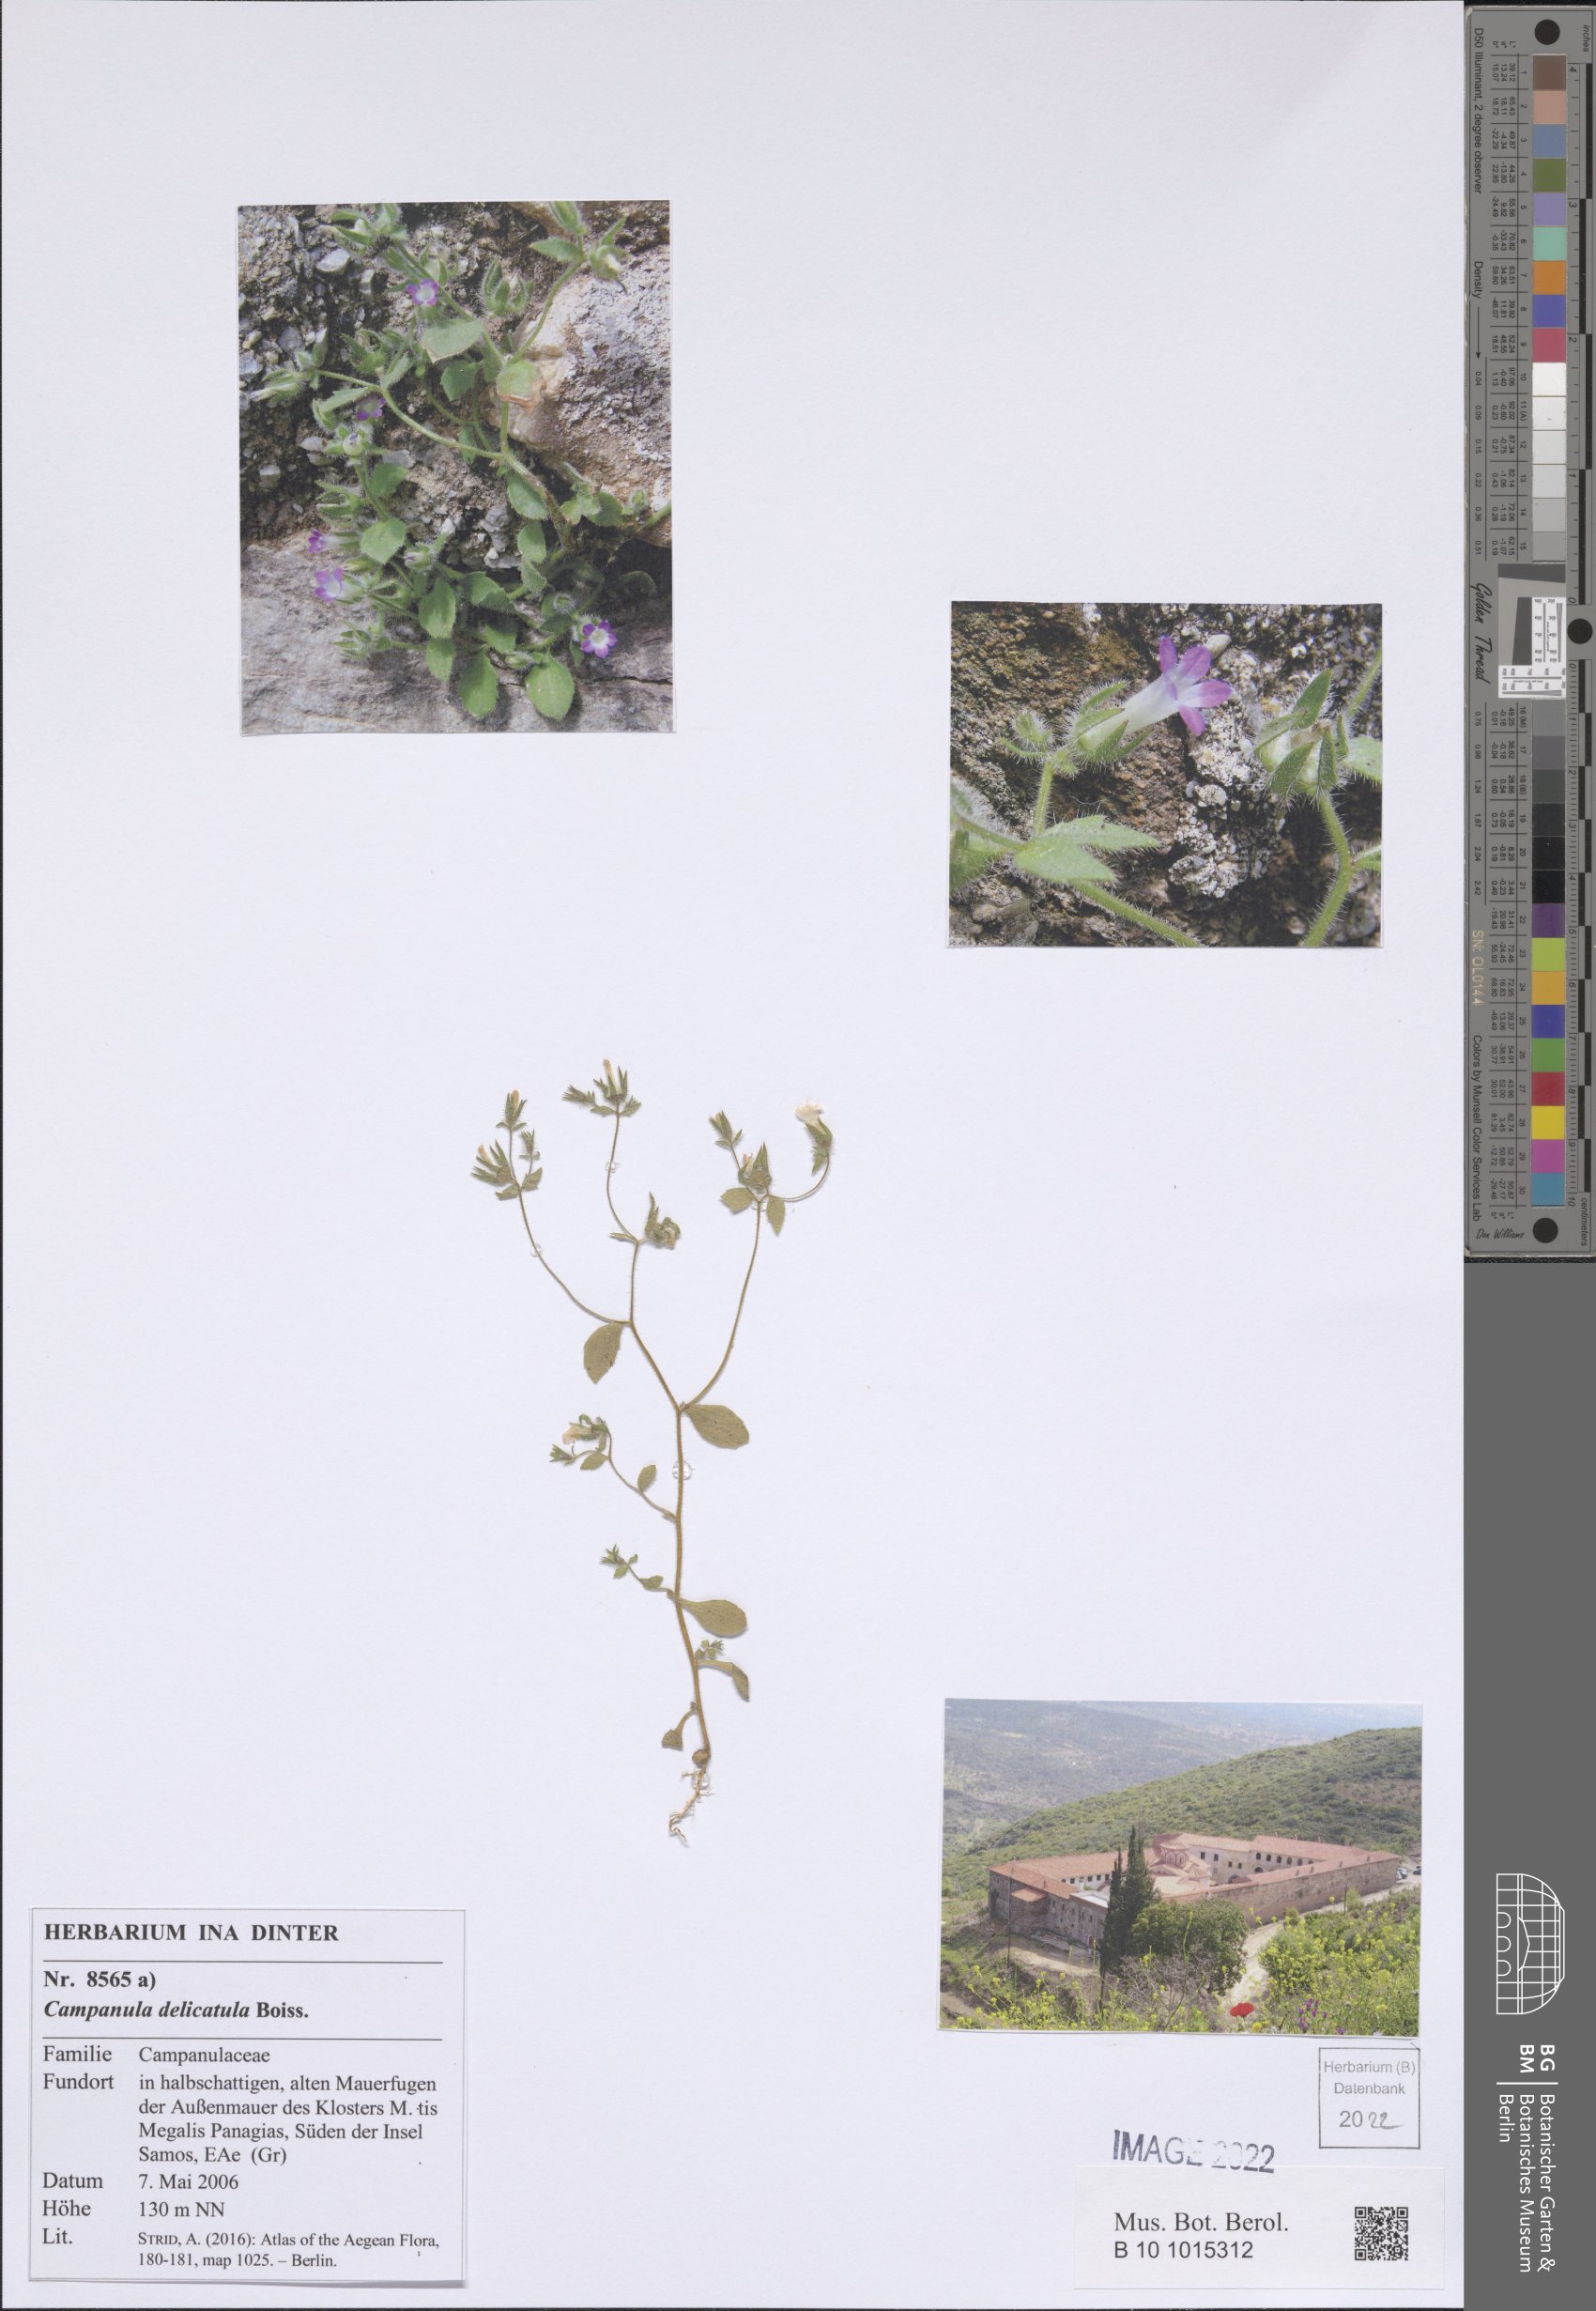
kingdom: Plantae
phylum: Tracheophyta
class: Magnoliopsida
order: Asterales
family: Campanulaceae
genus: Campanula
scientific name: Campanula delicatula
